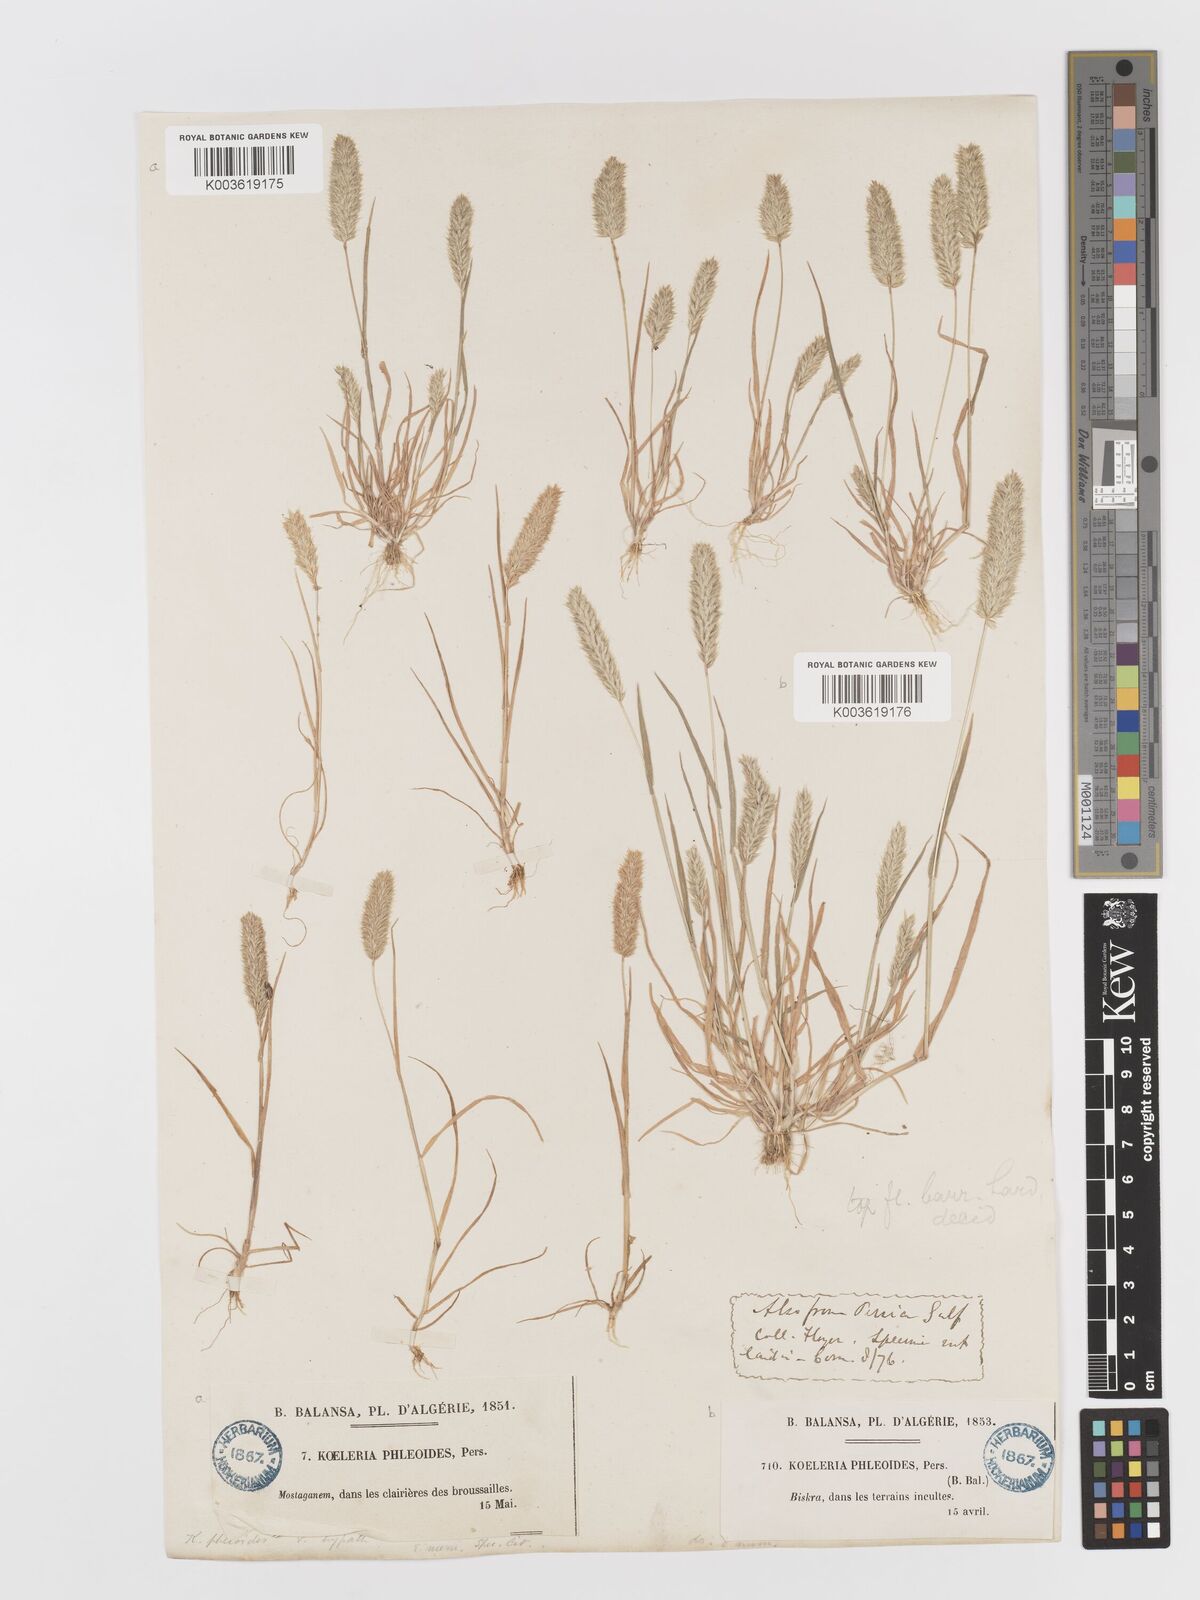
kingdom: Plantae
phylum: Tracheophyta
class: Liliopsida
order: Poales
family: Poaceae
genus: Rostraria
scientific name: Rostraria cristata
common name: Mediterranean hair-grass
